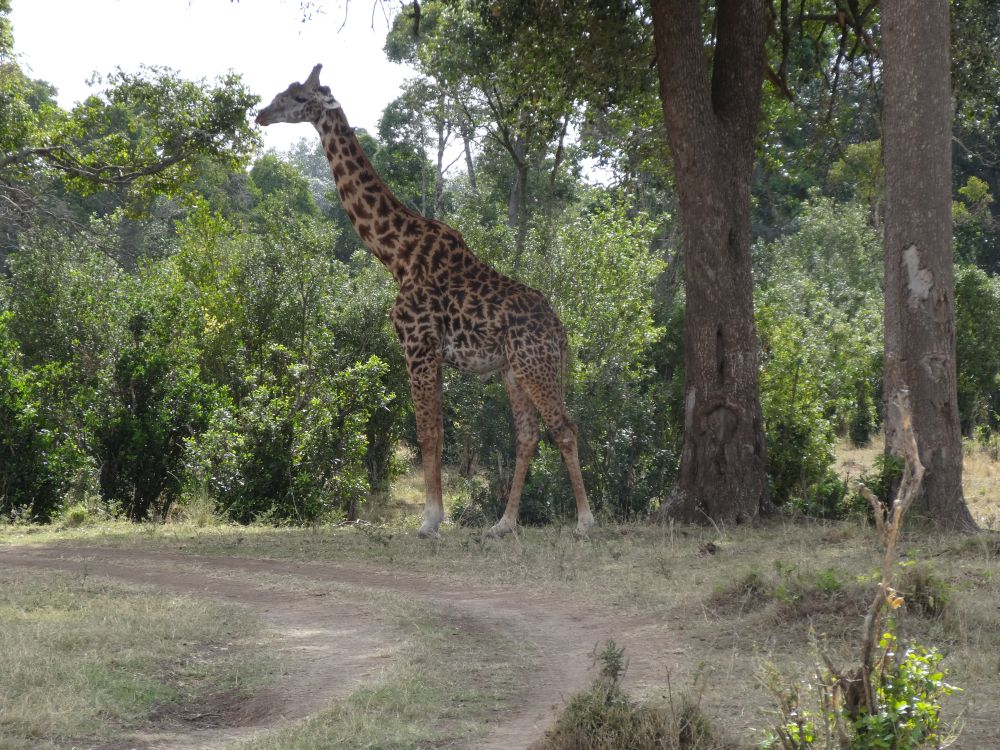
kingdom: Animalia
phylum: Chordata
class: Mammalia
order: Artiodactyla
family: Giraffidae
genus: Giraffa
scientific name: Giraffa tippelskirchi
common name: Masai giraffe
